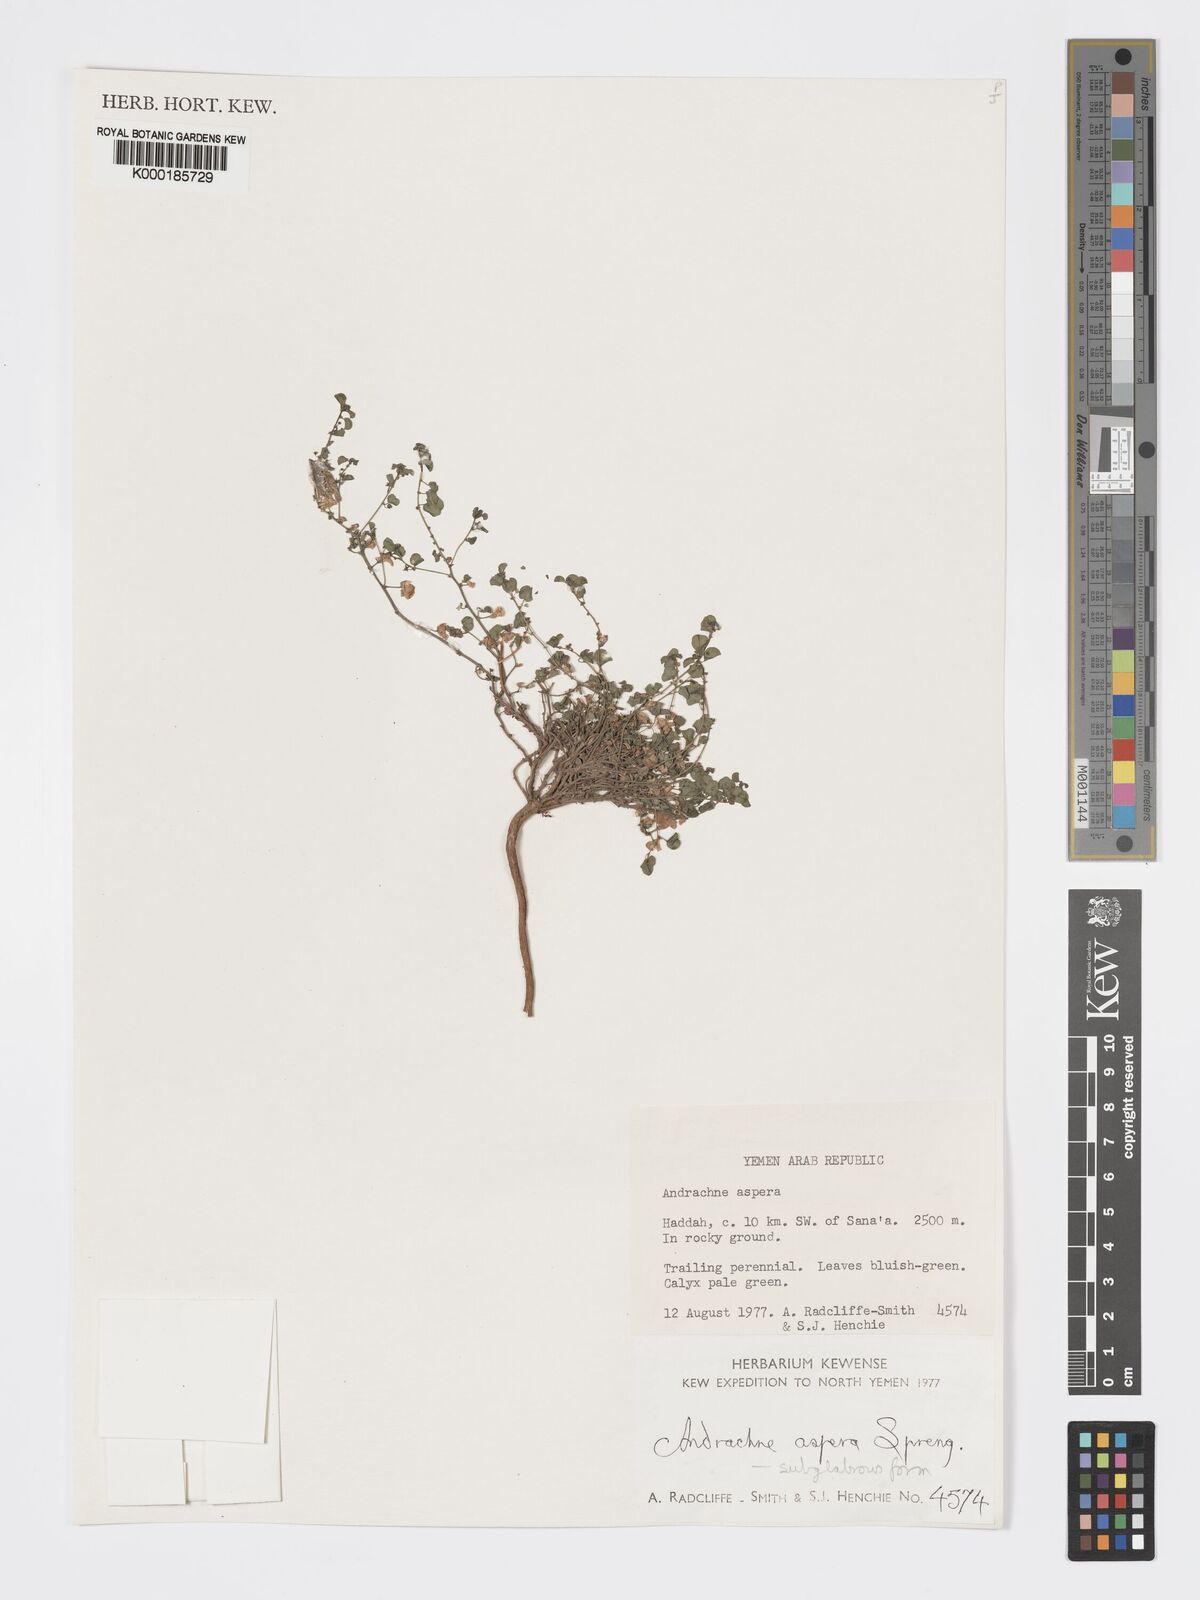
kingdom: Plantae
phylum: Tracheophyta
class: Magnoliopsida
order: Malpighiales
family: Phyllanthaceae
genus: Andrachne
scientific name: Andrachne aspera
